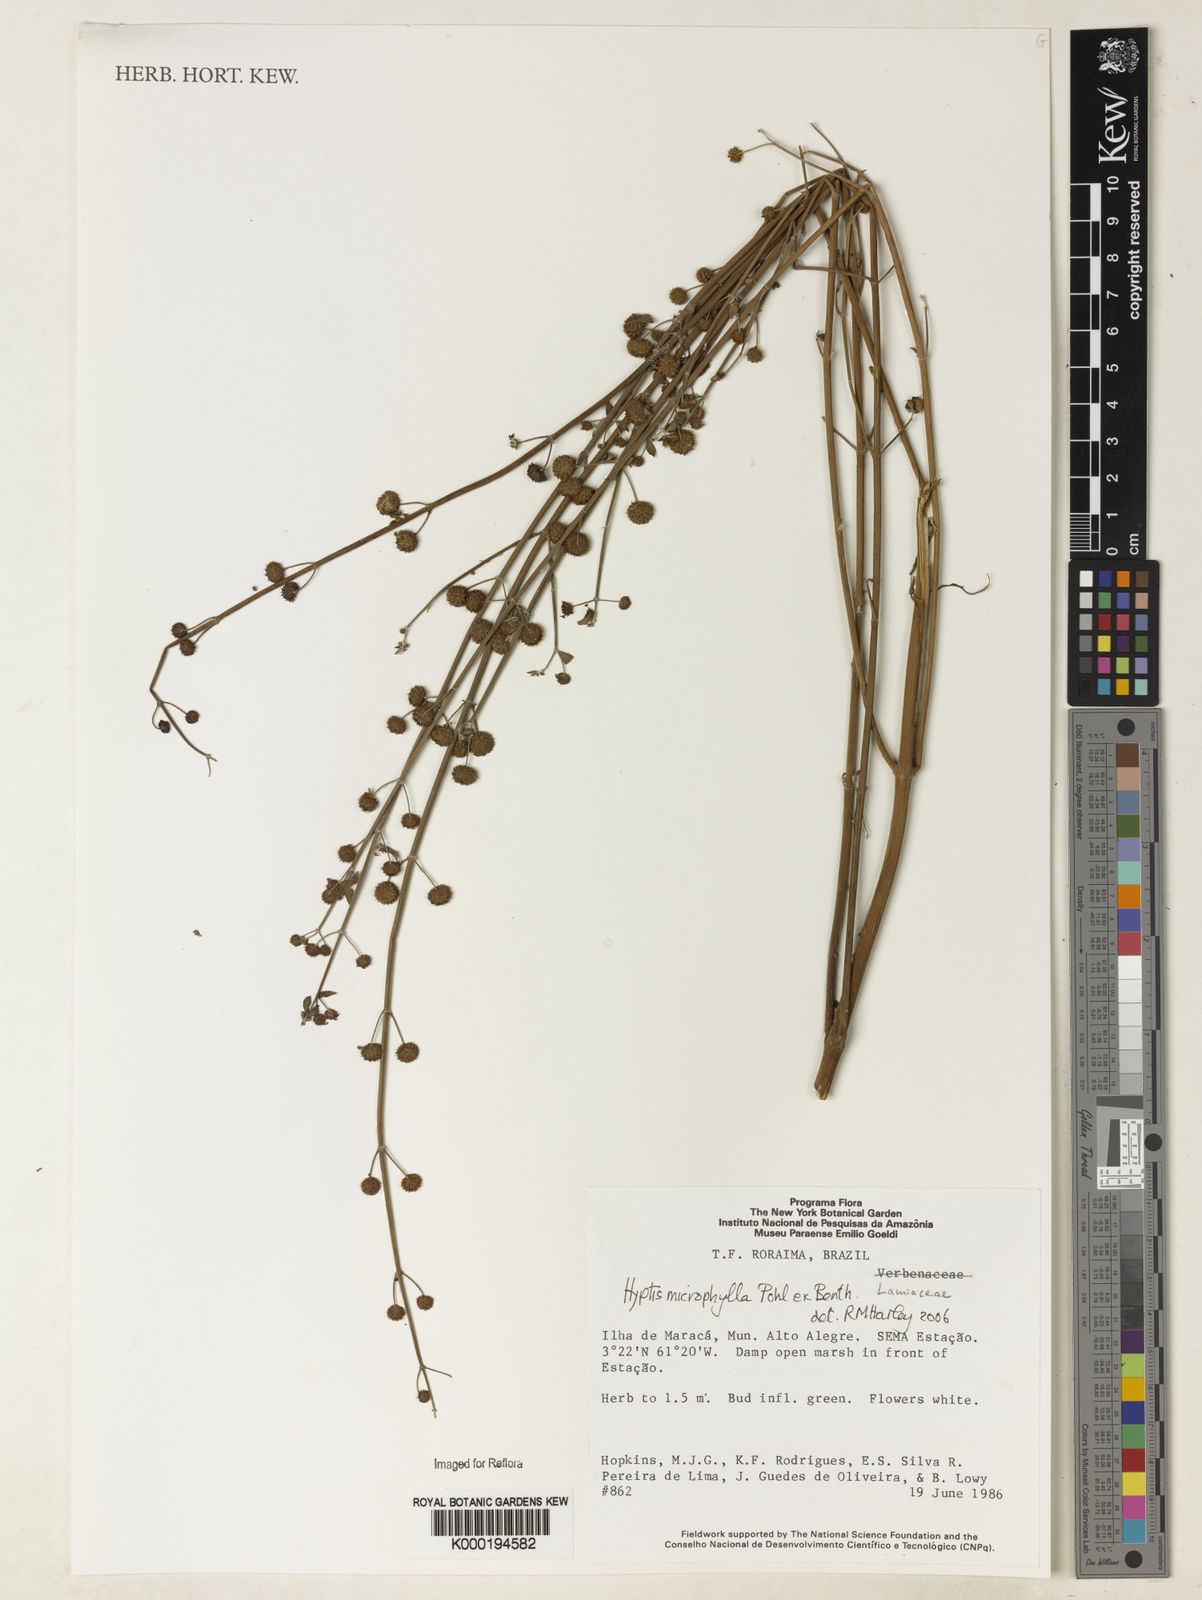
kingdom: Plantae
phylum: Tracheophyta
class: Magnoliopsida
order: Lamiales
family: Lamiaceae
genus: Hyptis
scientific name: Hyptis microphylla
